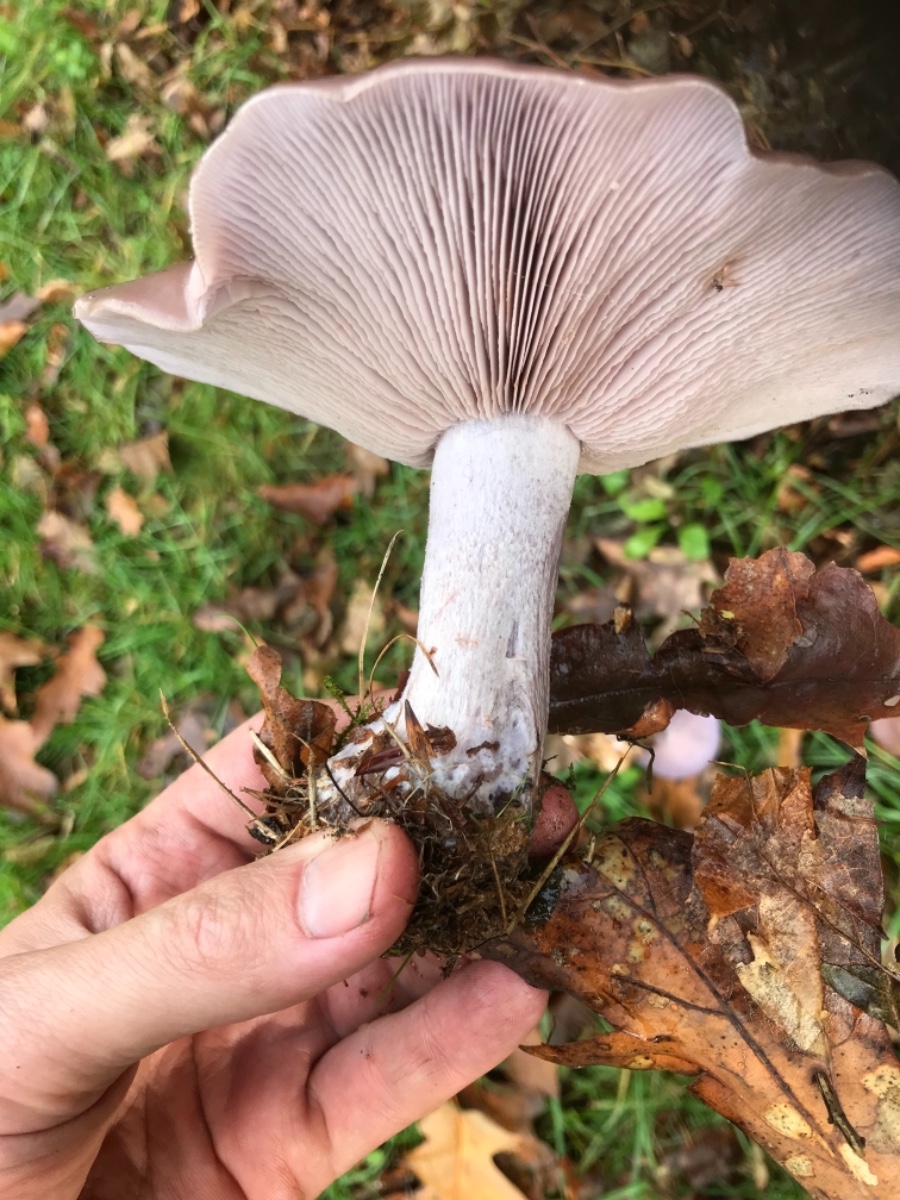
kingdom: Fungi
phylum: Basidiomycota
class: Agaricomycetes
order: Agaricales
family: Tricholomataceae
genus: Lepista
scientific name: Lepista nuda
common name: violet hekseringshat
